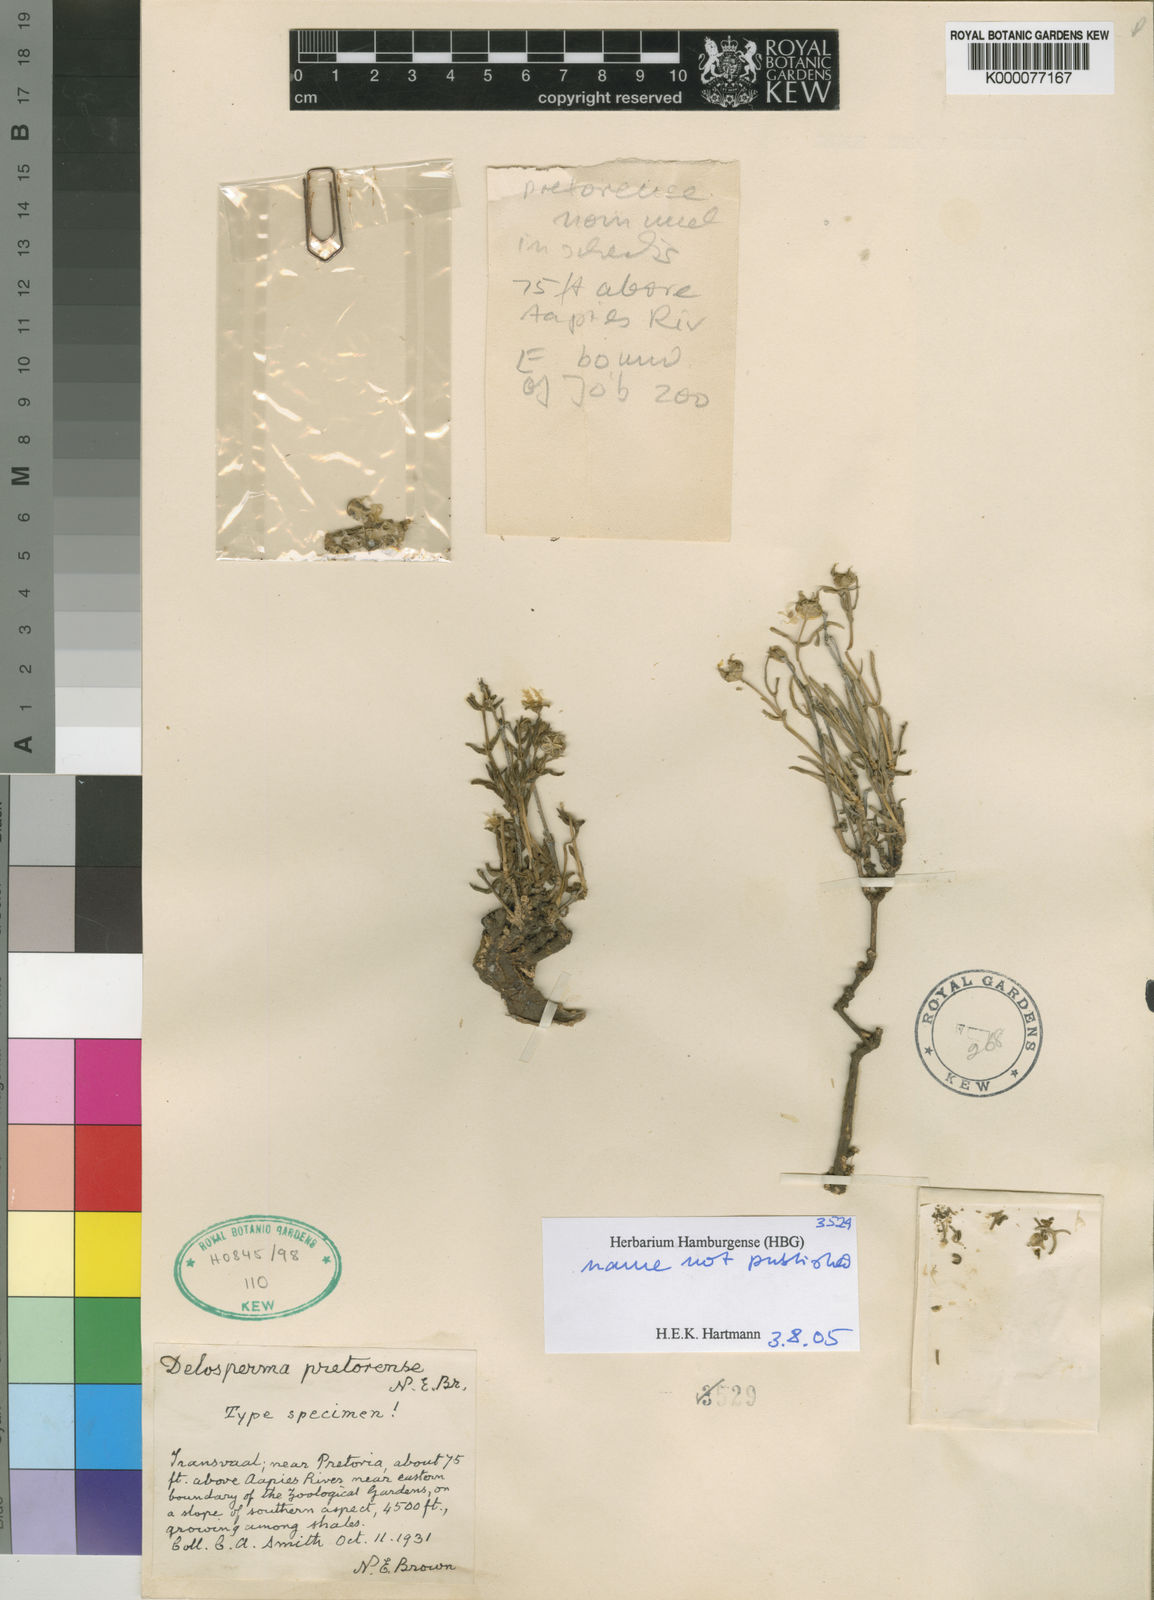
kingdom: Plantae
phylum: Tracheophyta
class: Magnoliopsida
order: Caryophyllales
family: Aizoaceae
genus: Delosperma
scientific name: Delosperma
